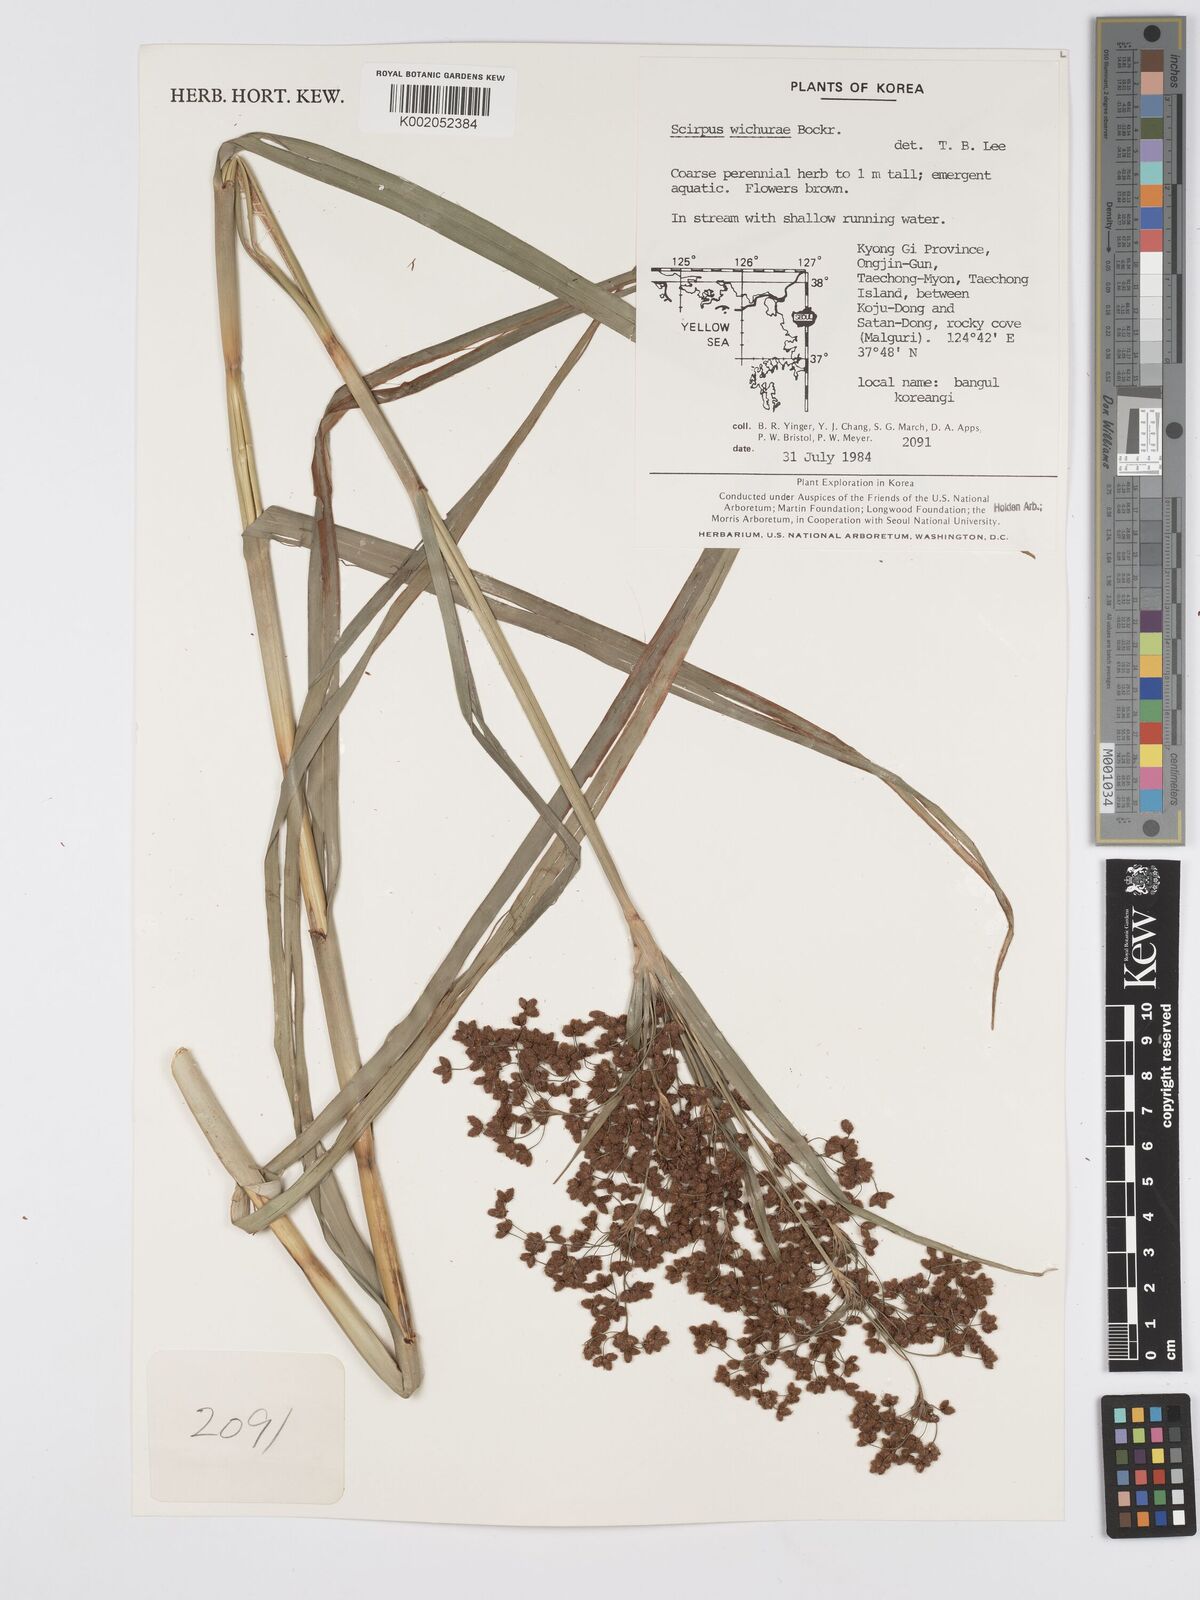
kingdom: Plantae
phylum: Tracheophyta
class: Liliopsida
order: Poales
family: Cyperaceae
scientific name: Cyperaceae
